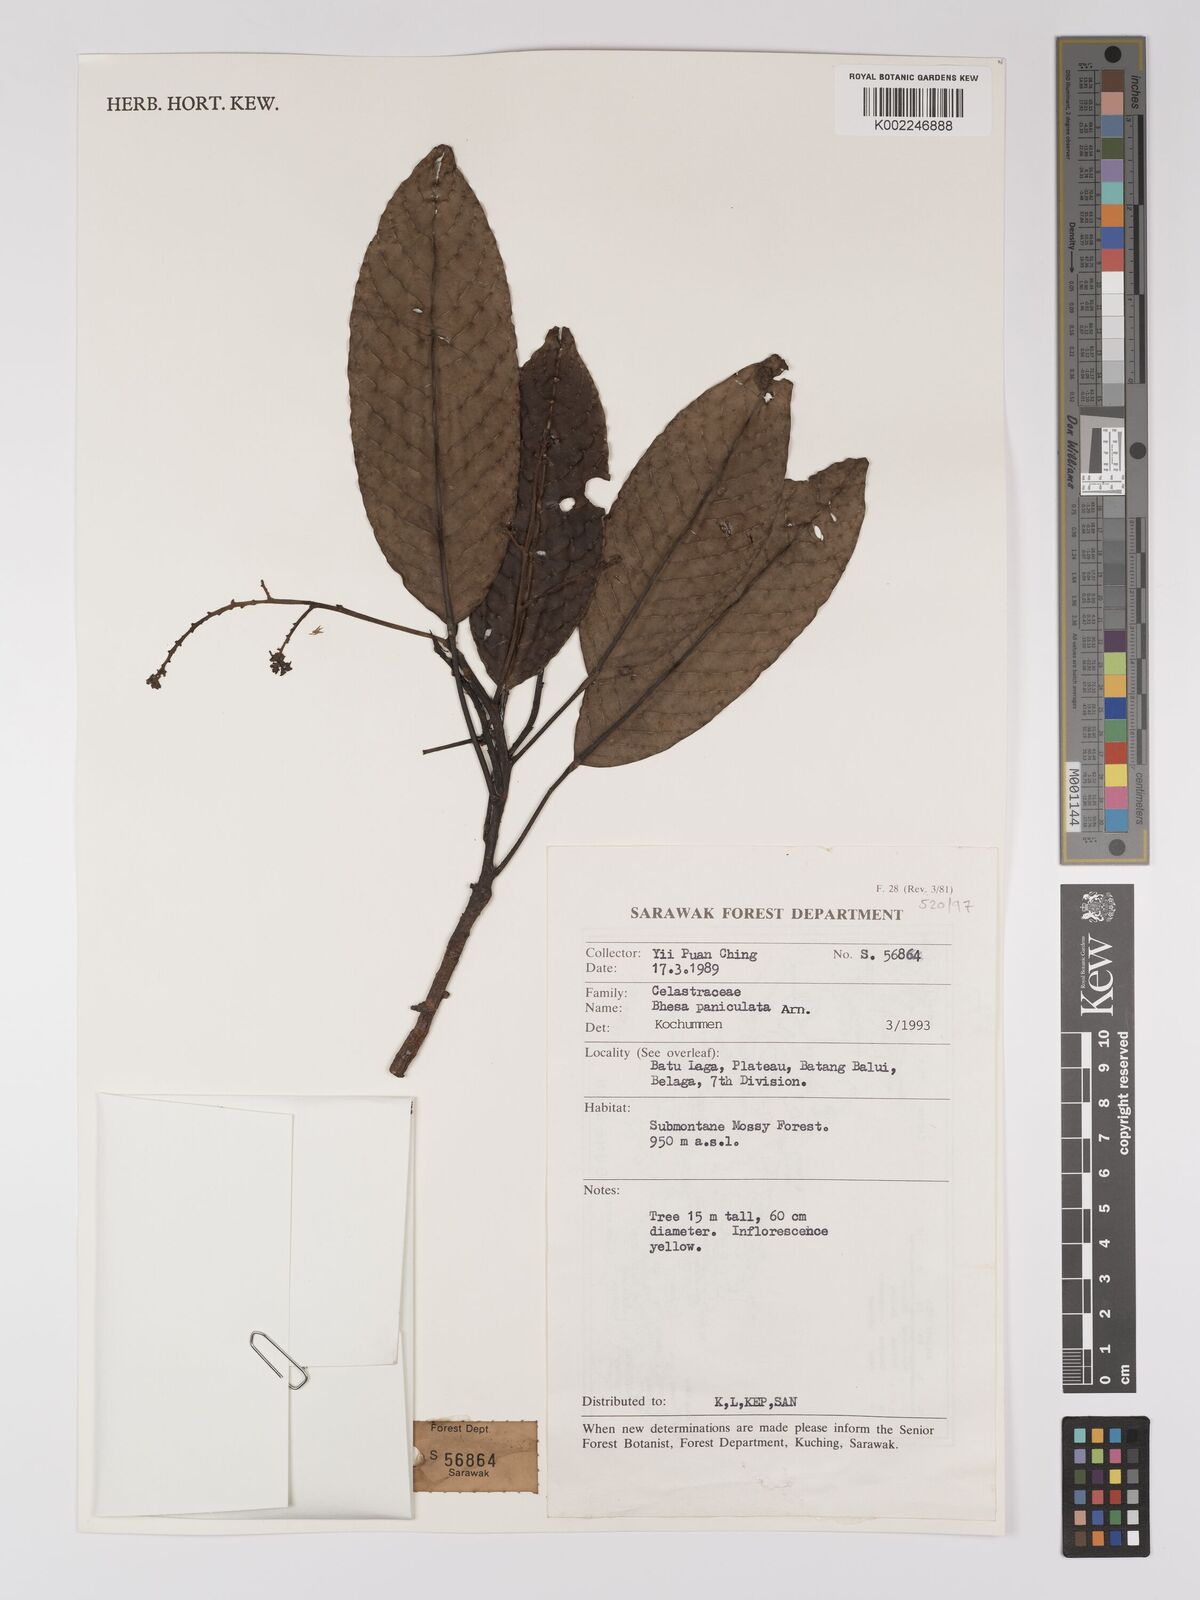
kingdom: Plantae
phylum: Tracheophyta
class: Magnoliopsida
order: Malpighiales
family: Centroplacaceae
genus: Bhesa
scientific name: Bhesa paniculata
